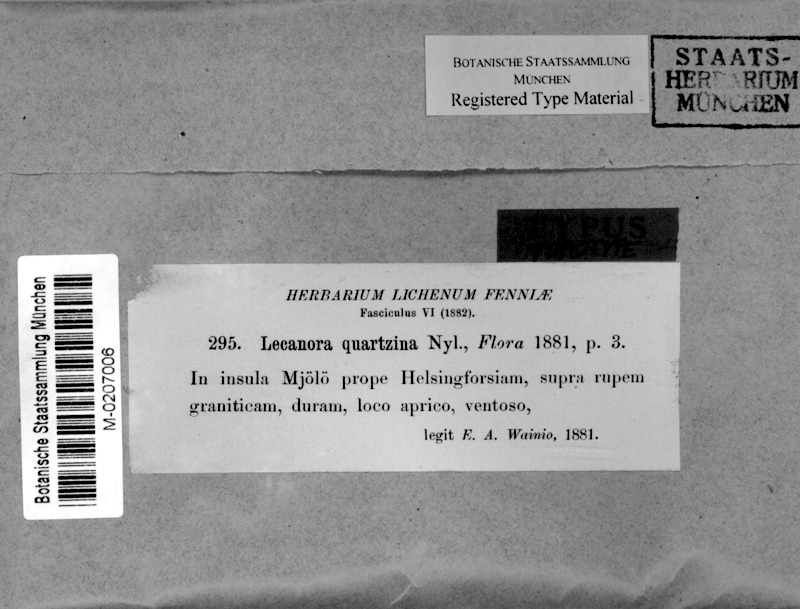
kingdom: Fungi
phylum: Ascomycota
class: Lecanoromycetes
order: Lecanorales
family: Lecanoraceae
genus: Polyozosia
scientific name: Polyozosia actophila
